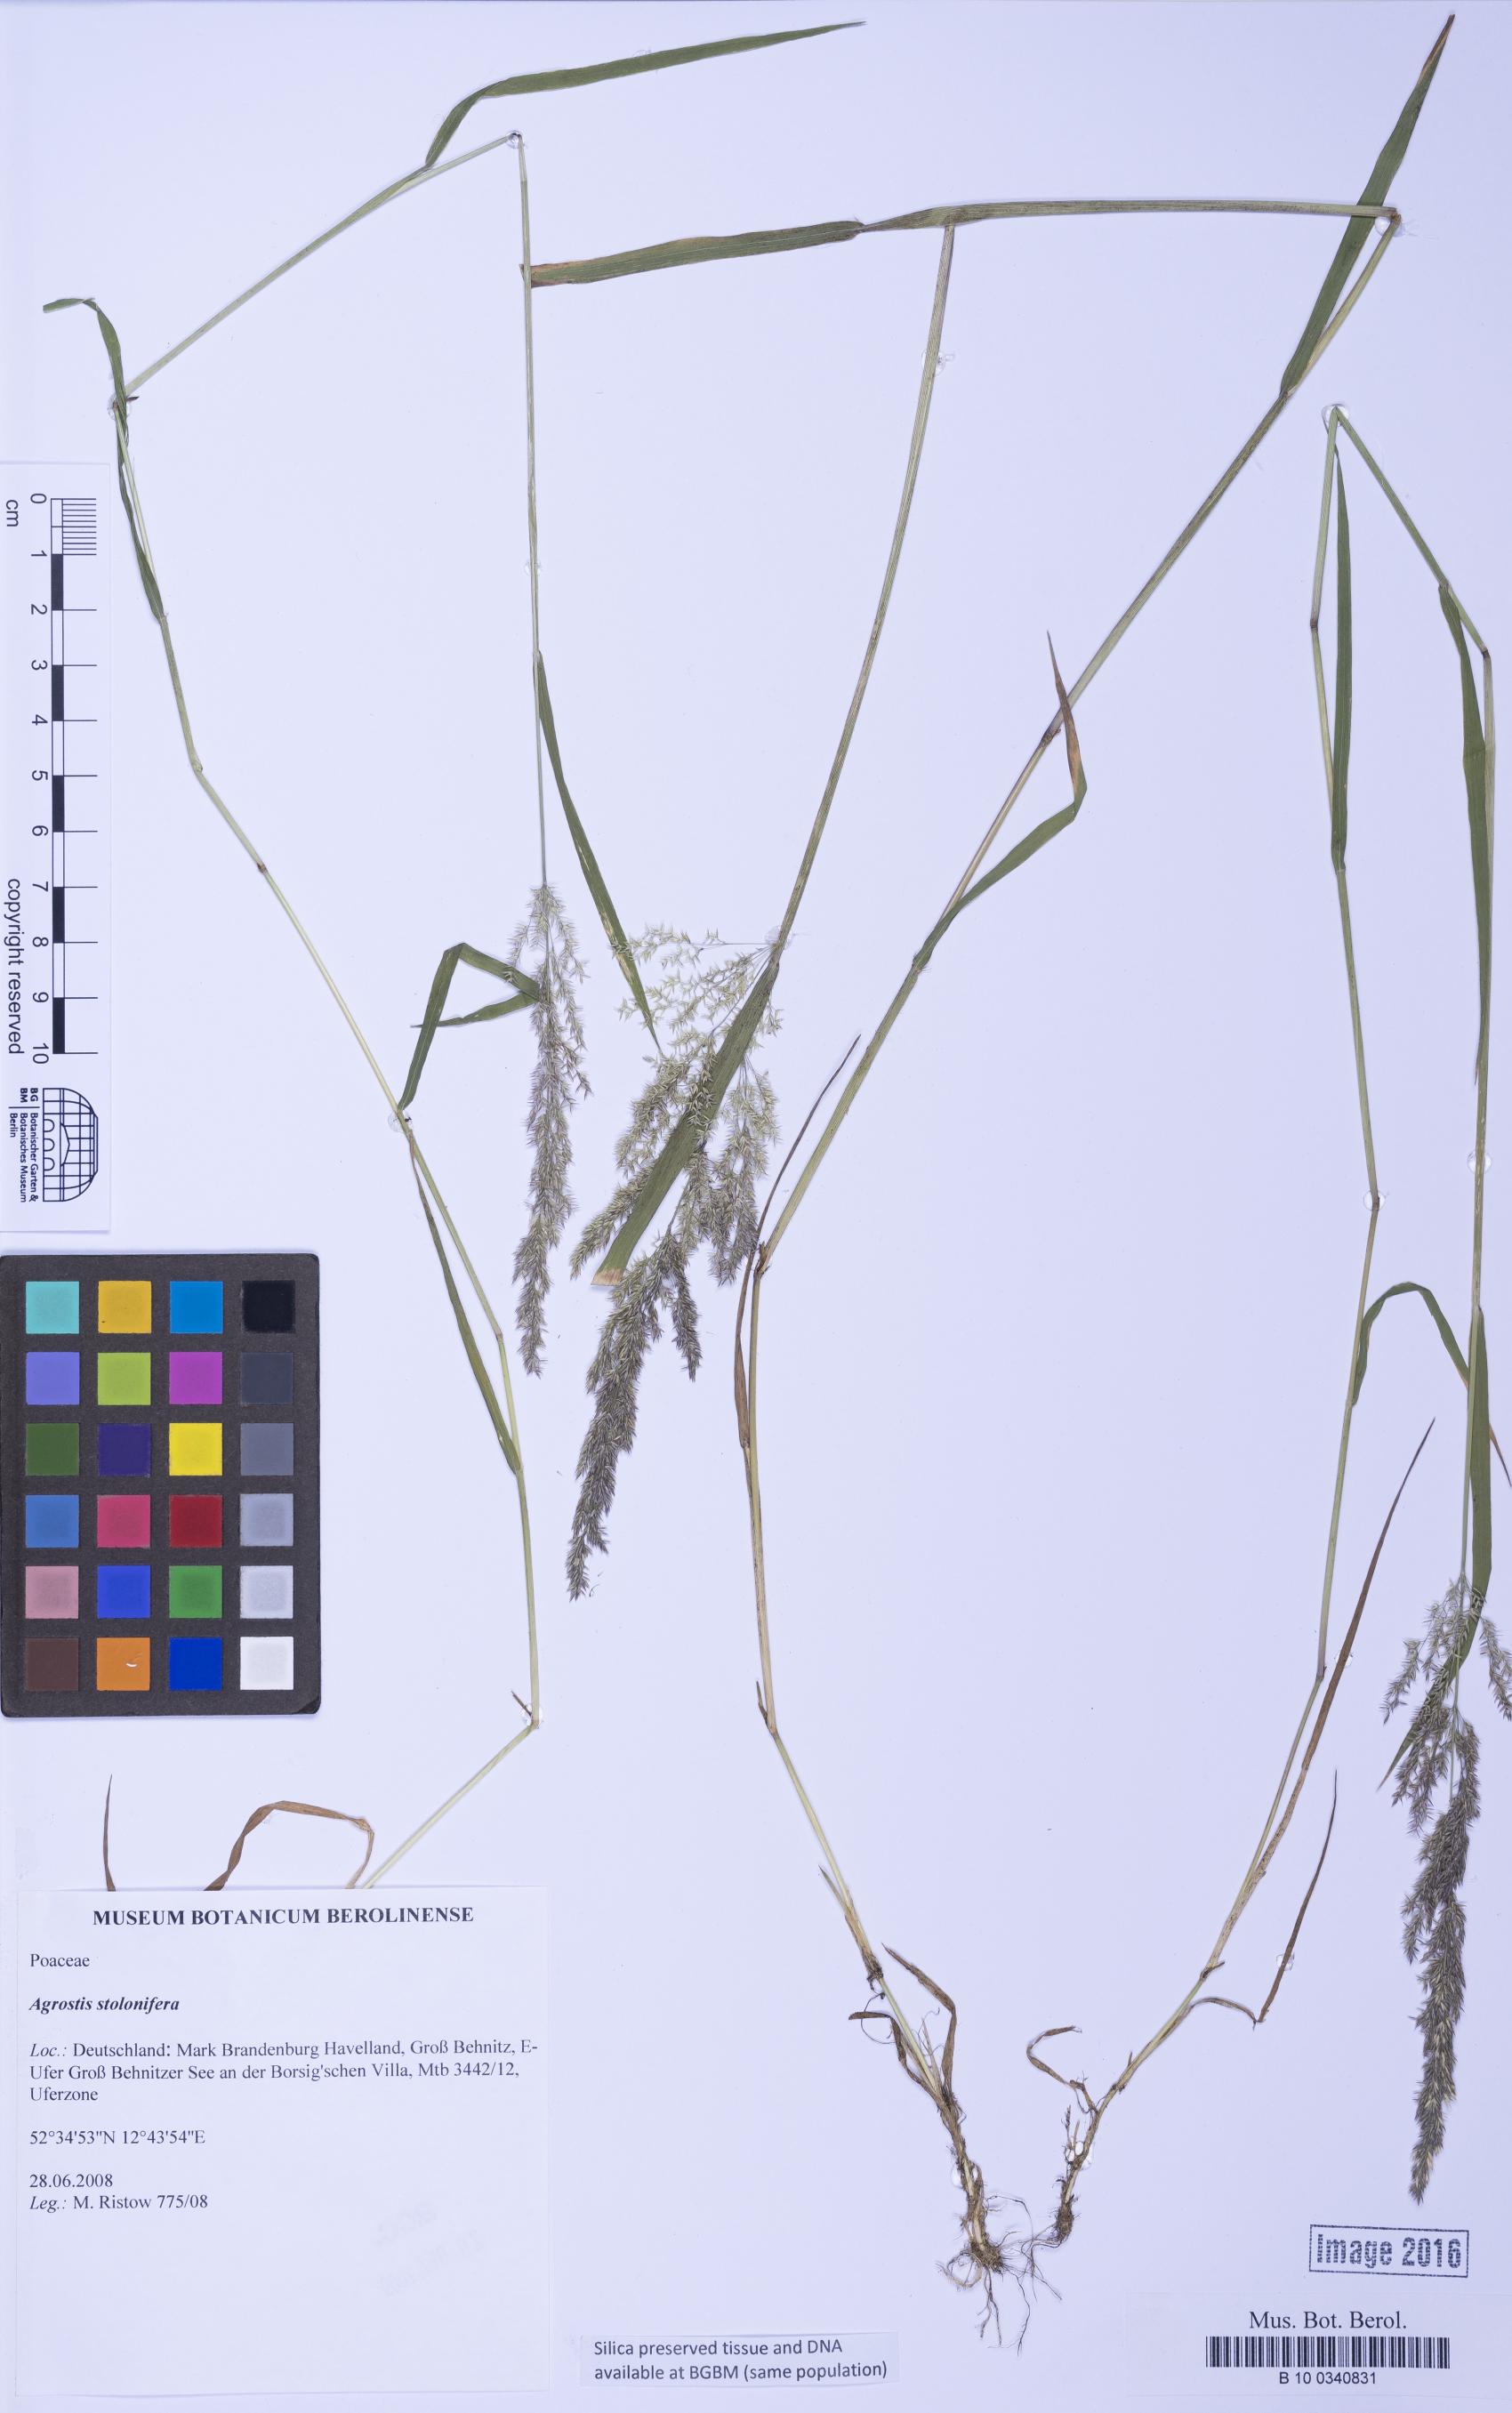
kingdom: Plantae
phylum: Tracheophyta
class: Liliopsida
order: Poales
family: Poaceae
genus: Agrostis
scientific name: Agrostis stolonifera
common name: Creeping bentgrass
